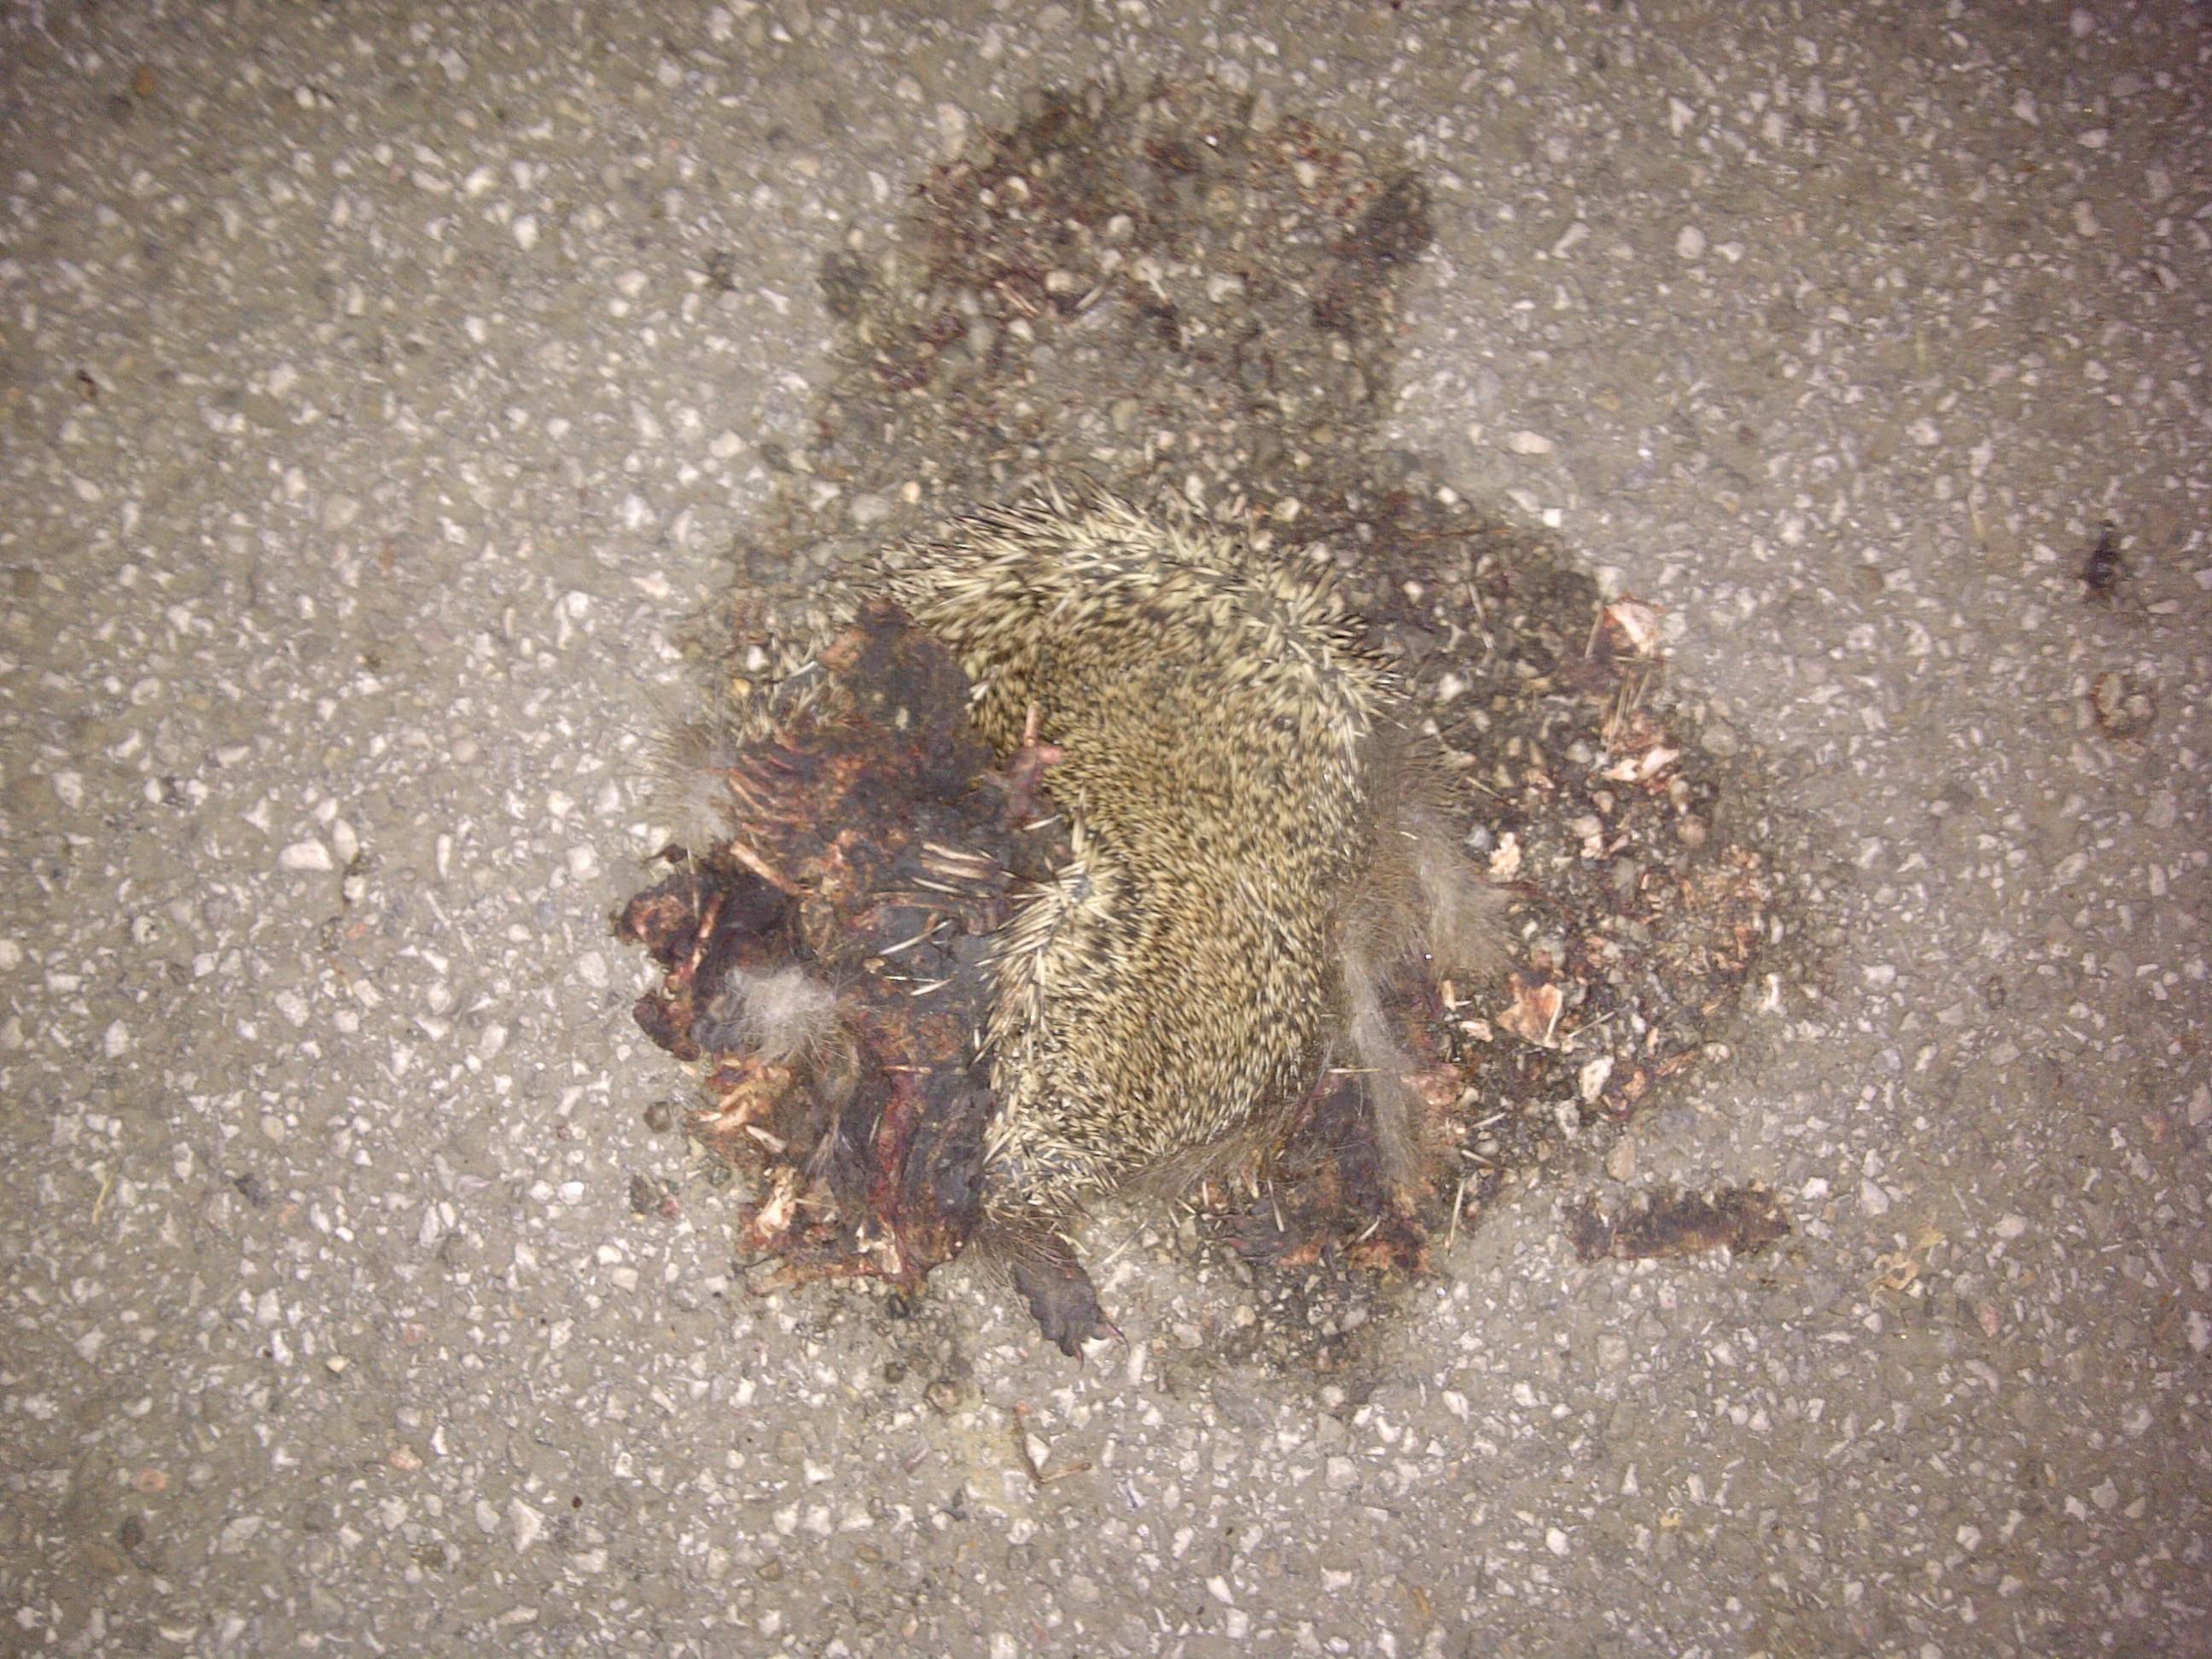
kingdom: Animalia
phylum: Chordata
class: Mammalia
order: Erinaceomorpha
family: Erinaceidae
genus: Erinaceus
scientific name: Erinaceus
